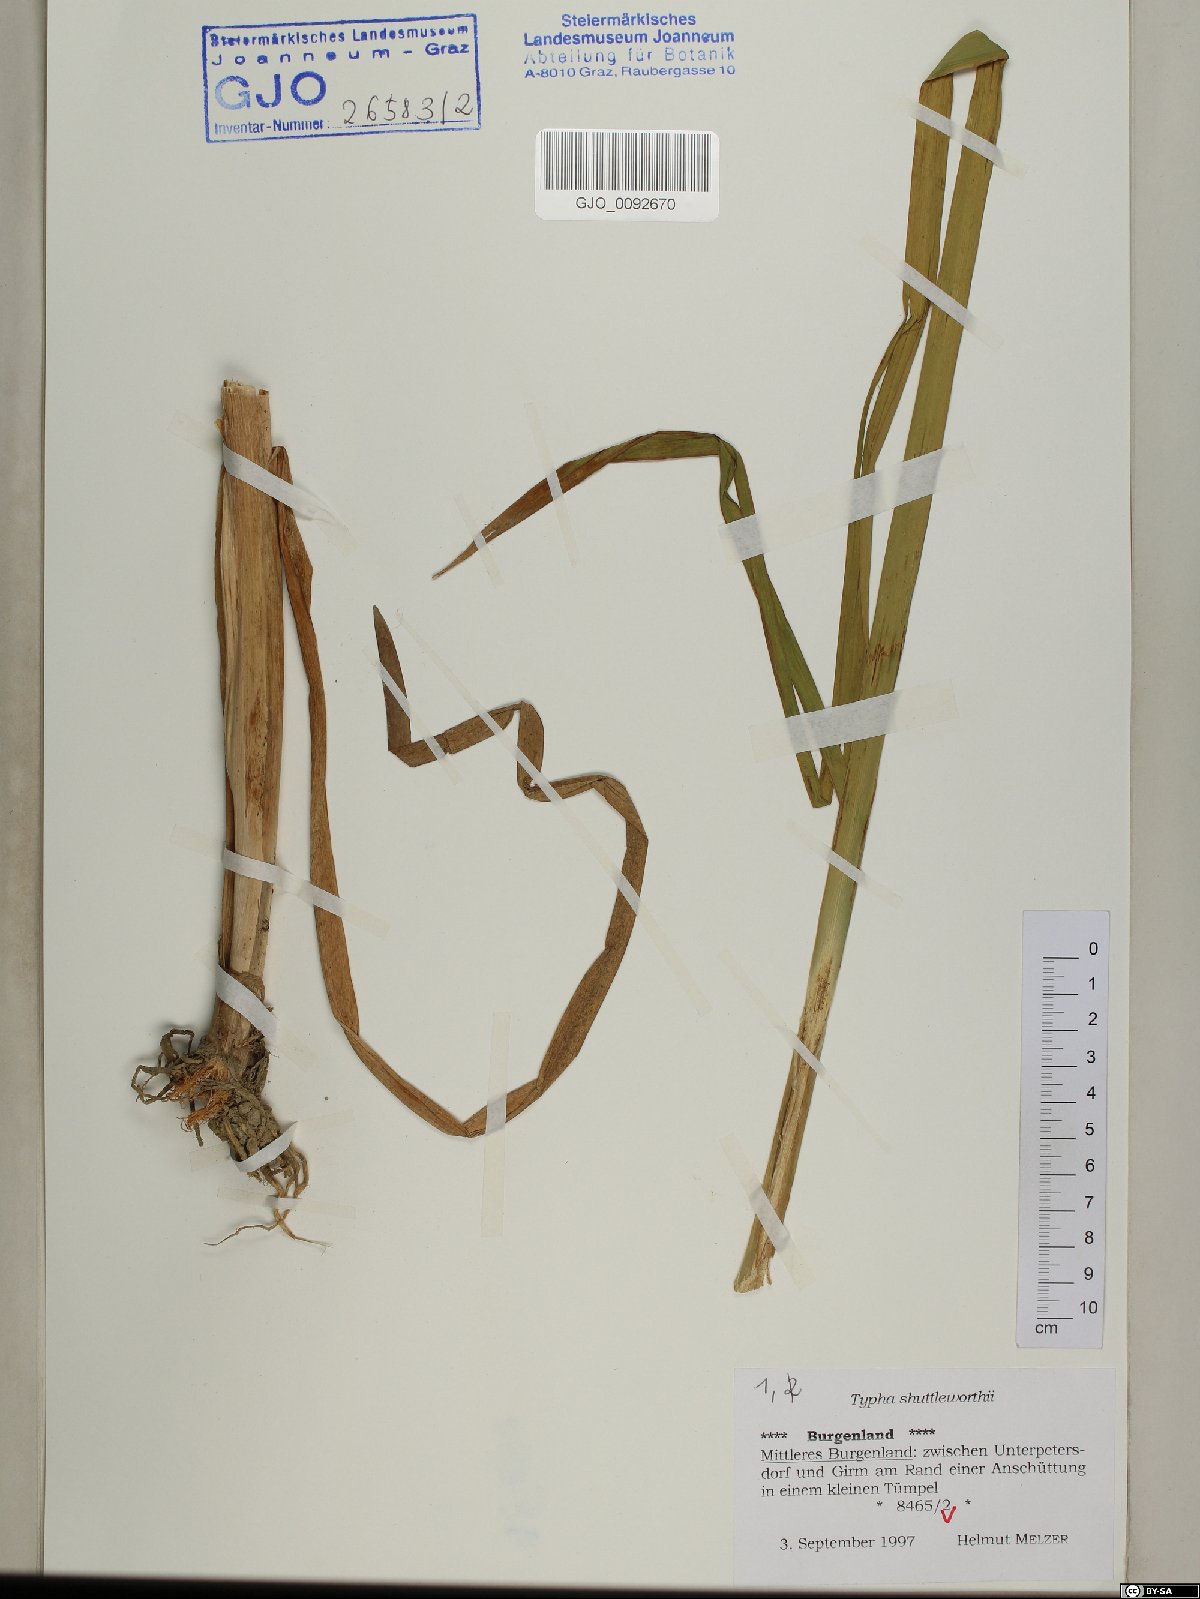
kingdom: Plantae
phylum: Tracheophyta
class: Liliopsida
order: Poales
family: Typhaceae
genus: Typha
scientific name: Typha shuttleworthii
